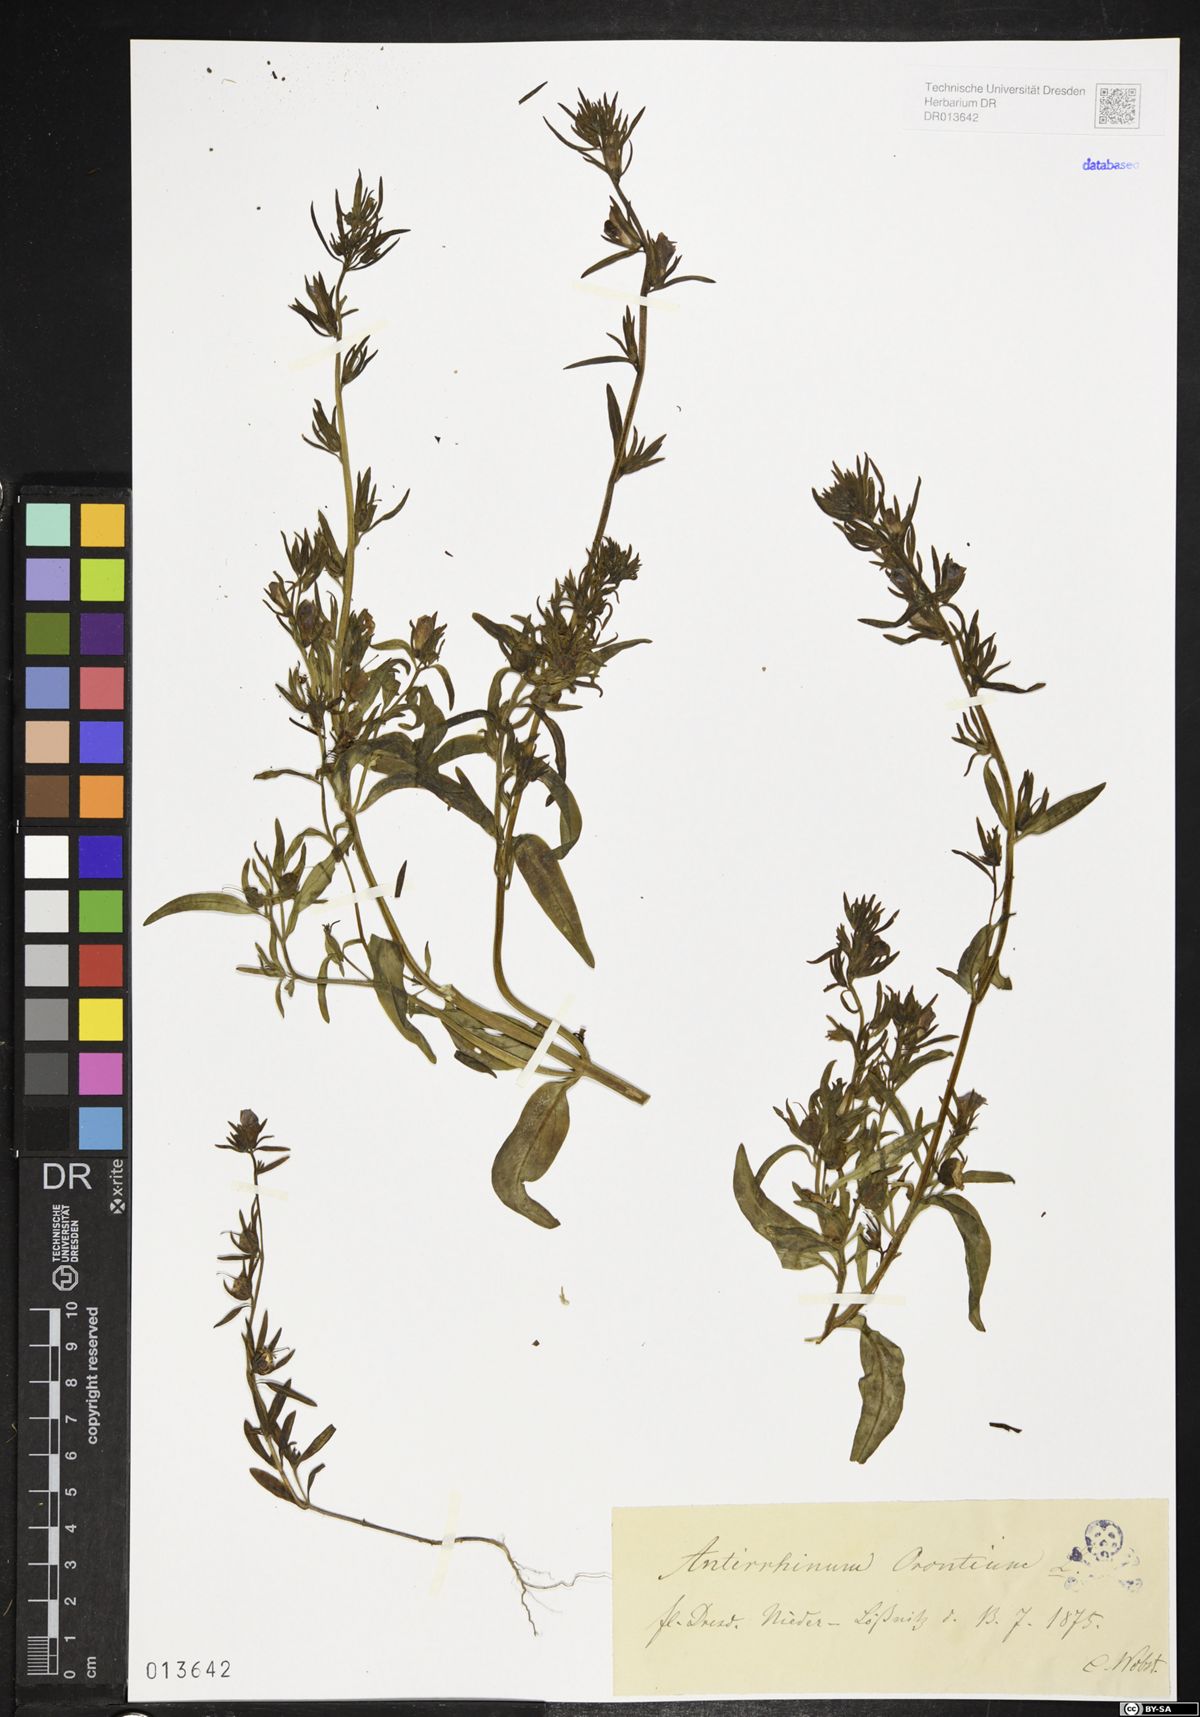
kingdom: Plantae
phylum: Tracheophyta
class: Magnoliopsida
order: Lamiales
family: Plantaginaceae
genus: Misopates
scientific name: Misopates orontium
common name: Weasel's-snout
